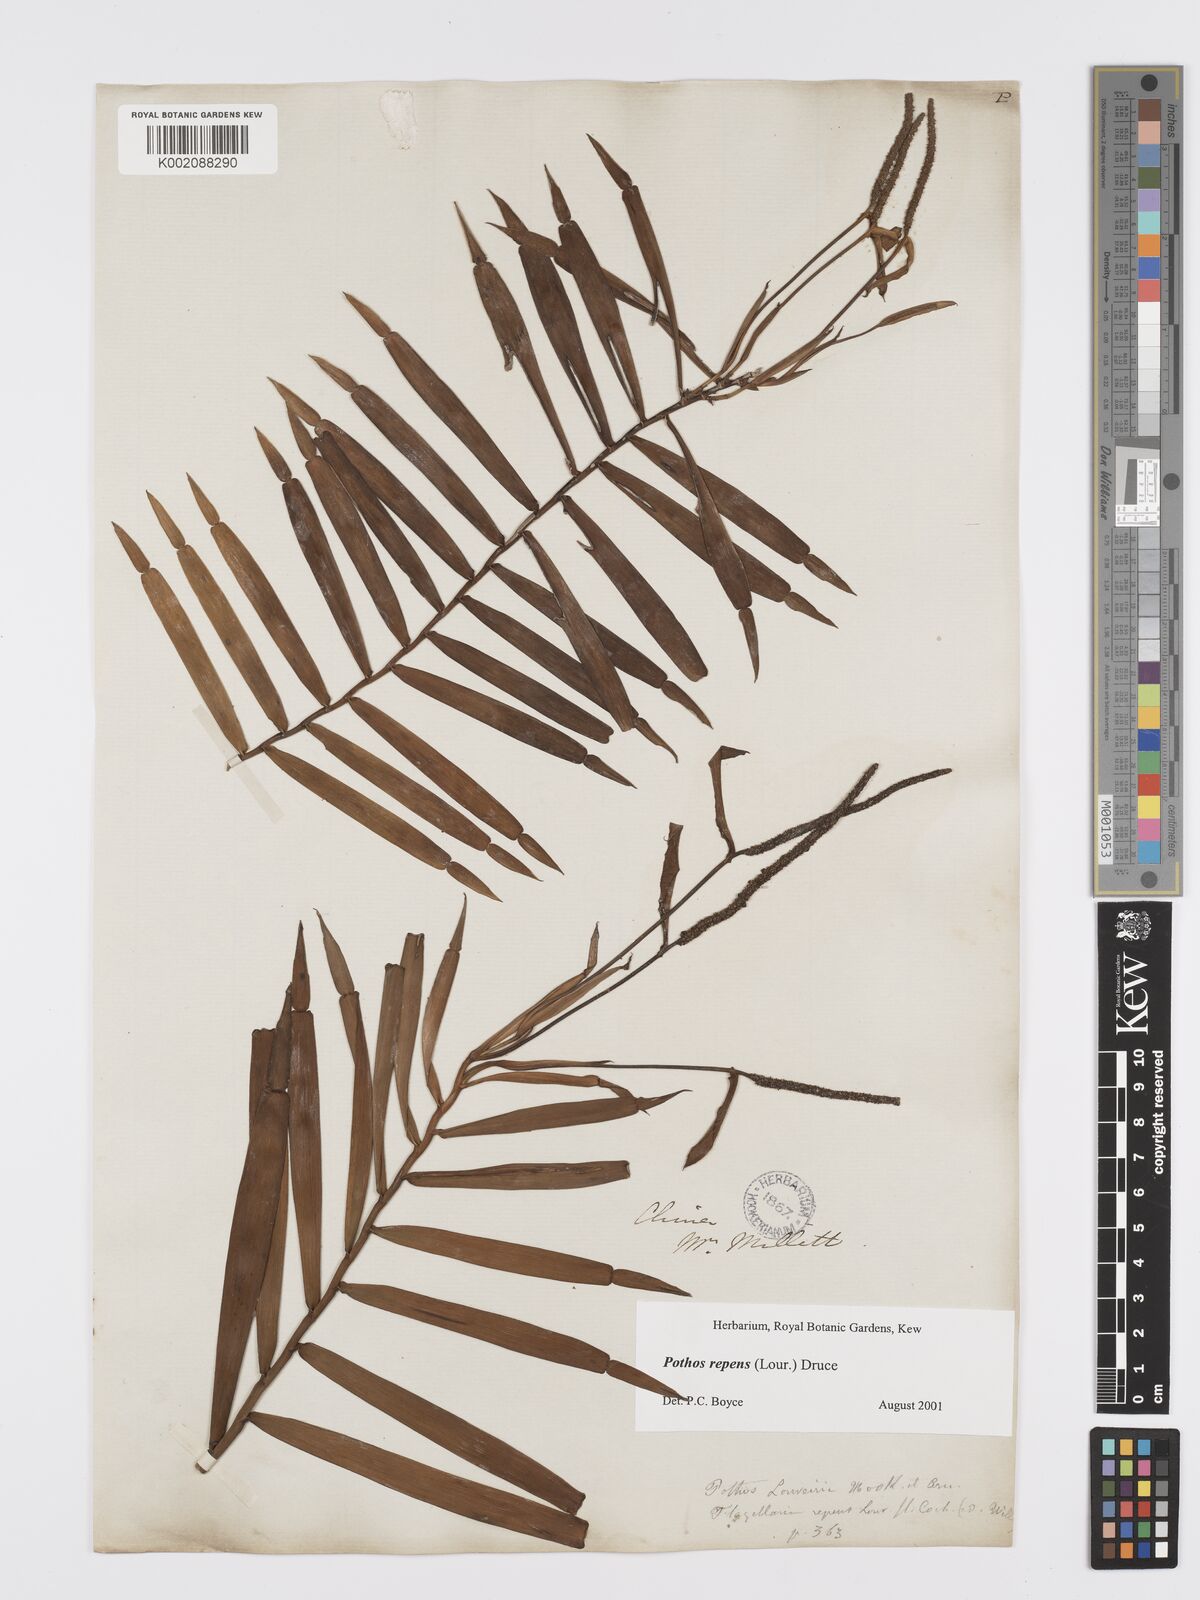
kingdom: Plantae
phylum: Tracheophyta
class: Liliopsida
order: Alismatales
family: Araceae
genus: Pothos
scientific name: Pothos repens
